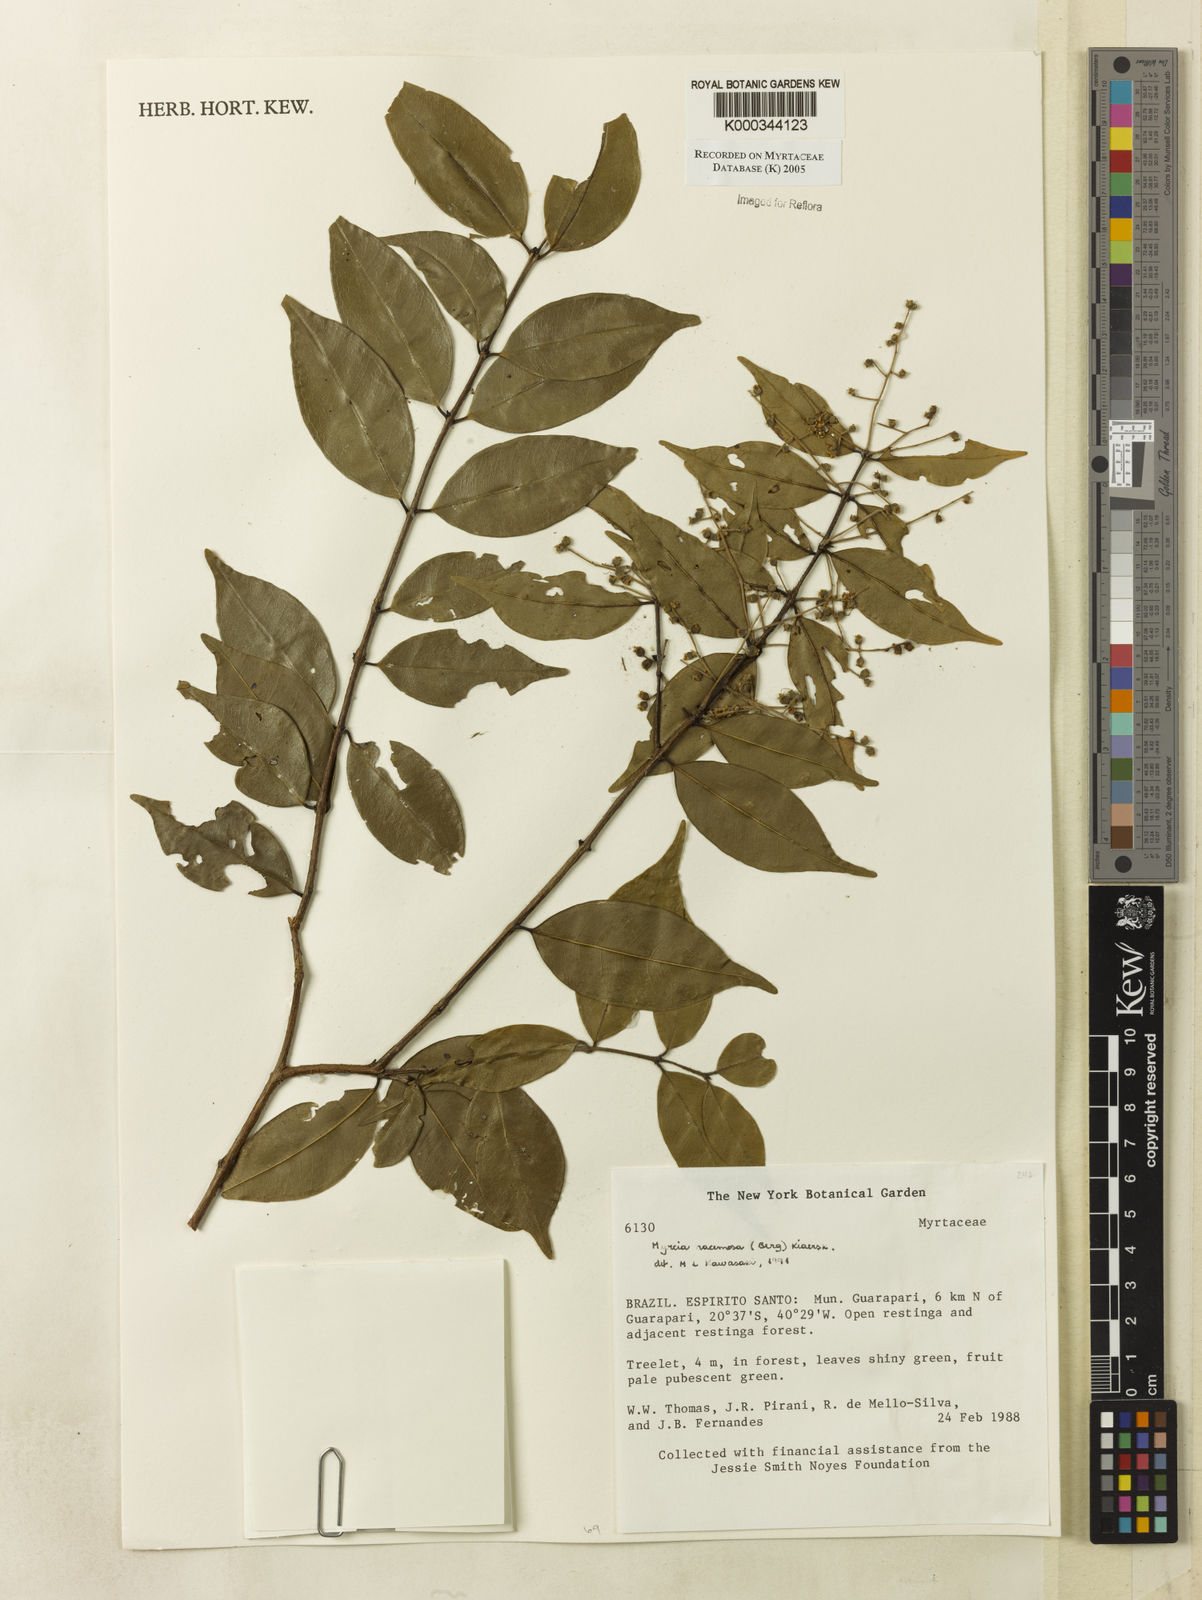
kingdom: Plantae
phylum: Tracheophyta
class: Magnoliopsida
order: Myrtales
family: Myrtaceae
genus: Myrcia
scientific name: Myrcia racemosa
